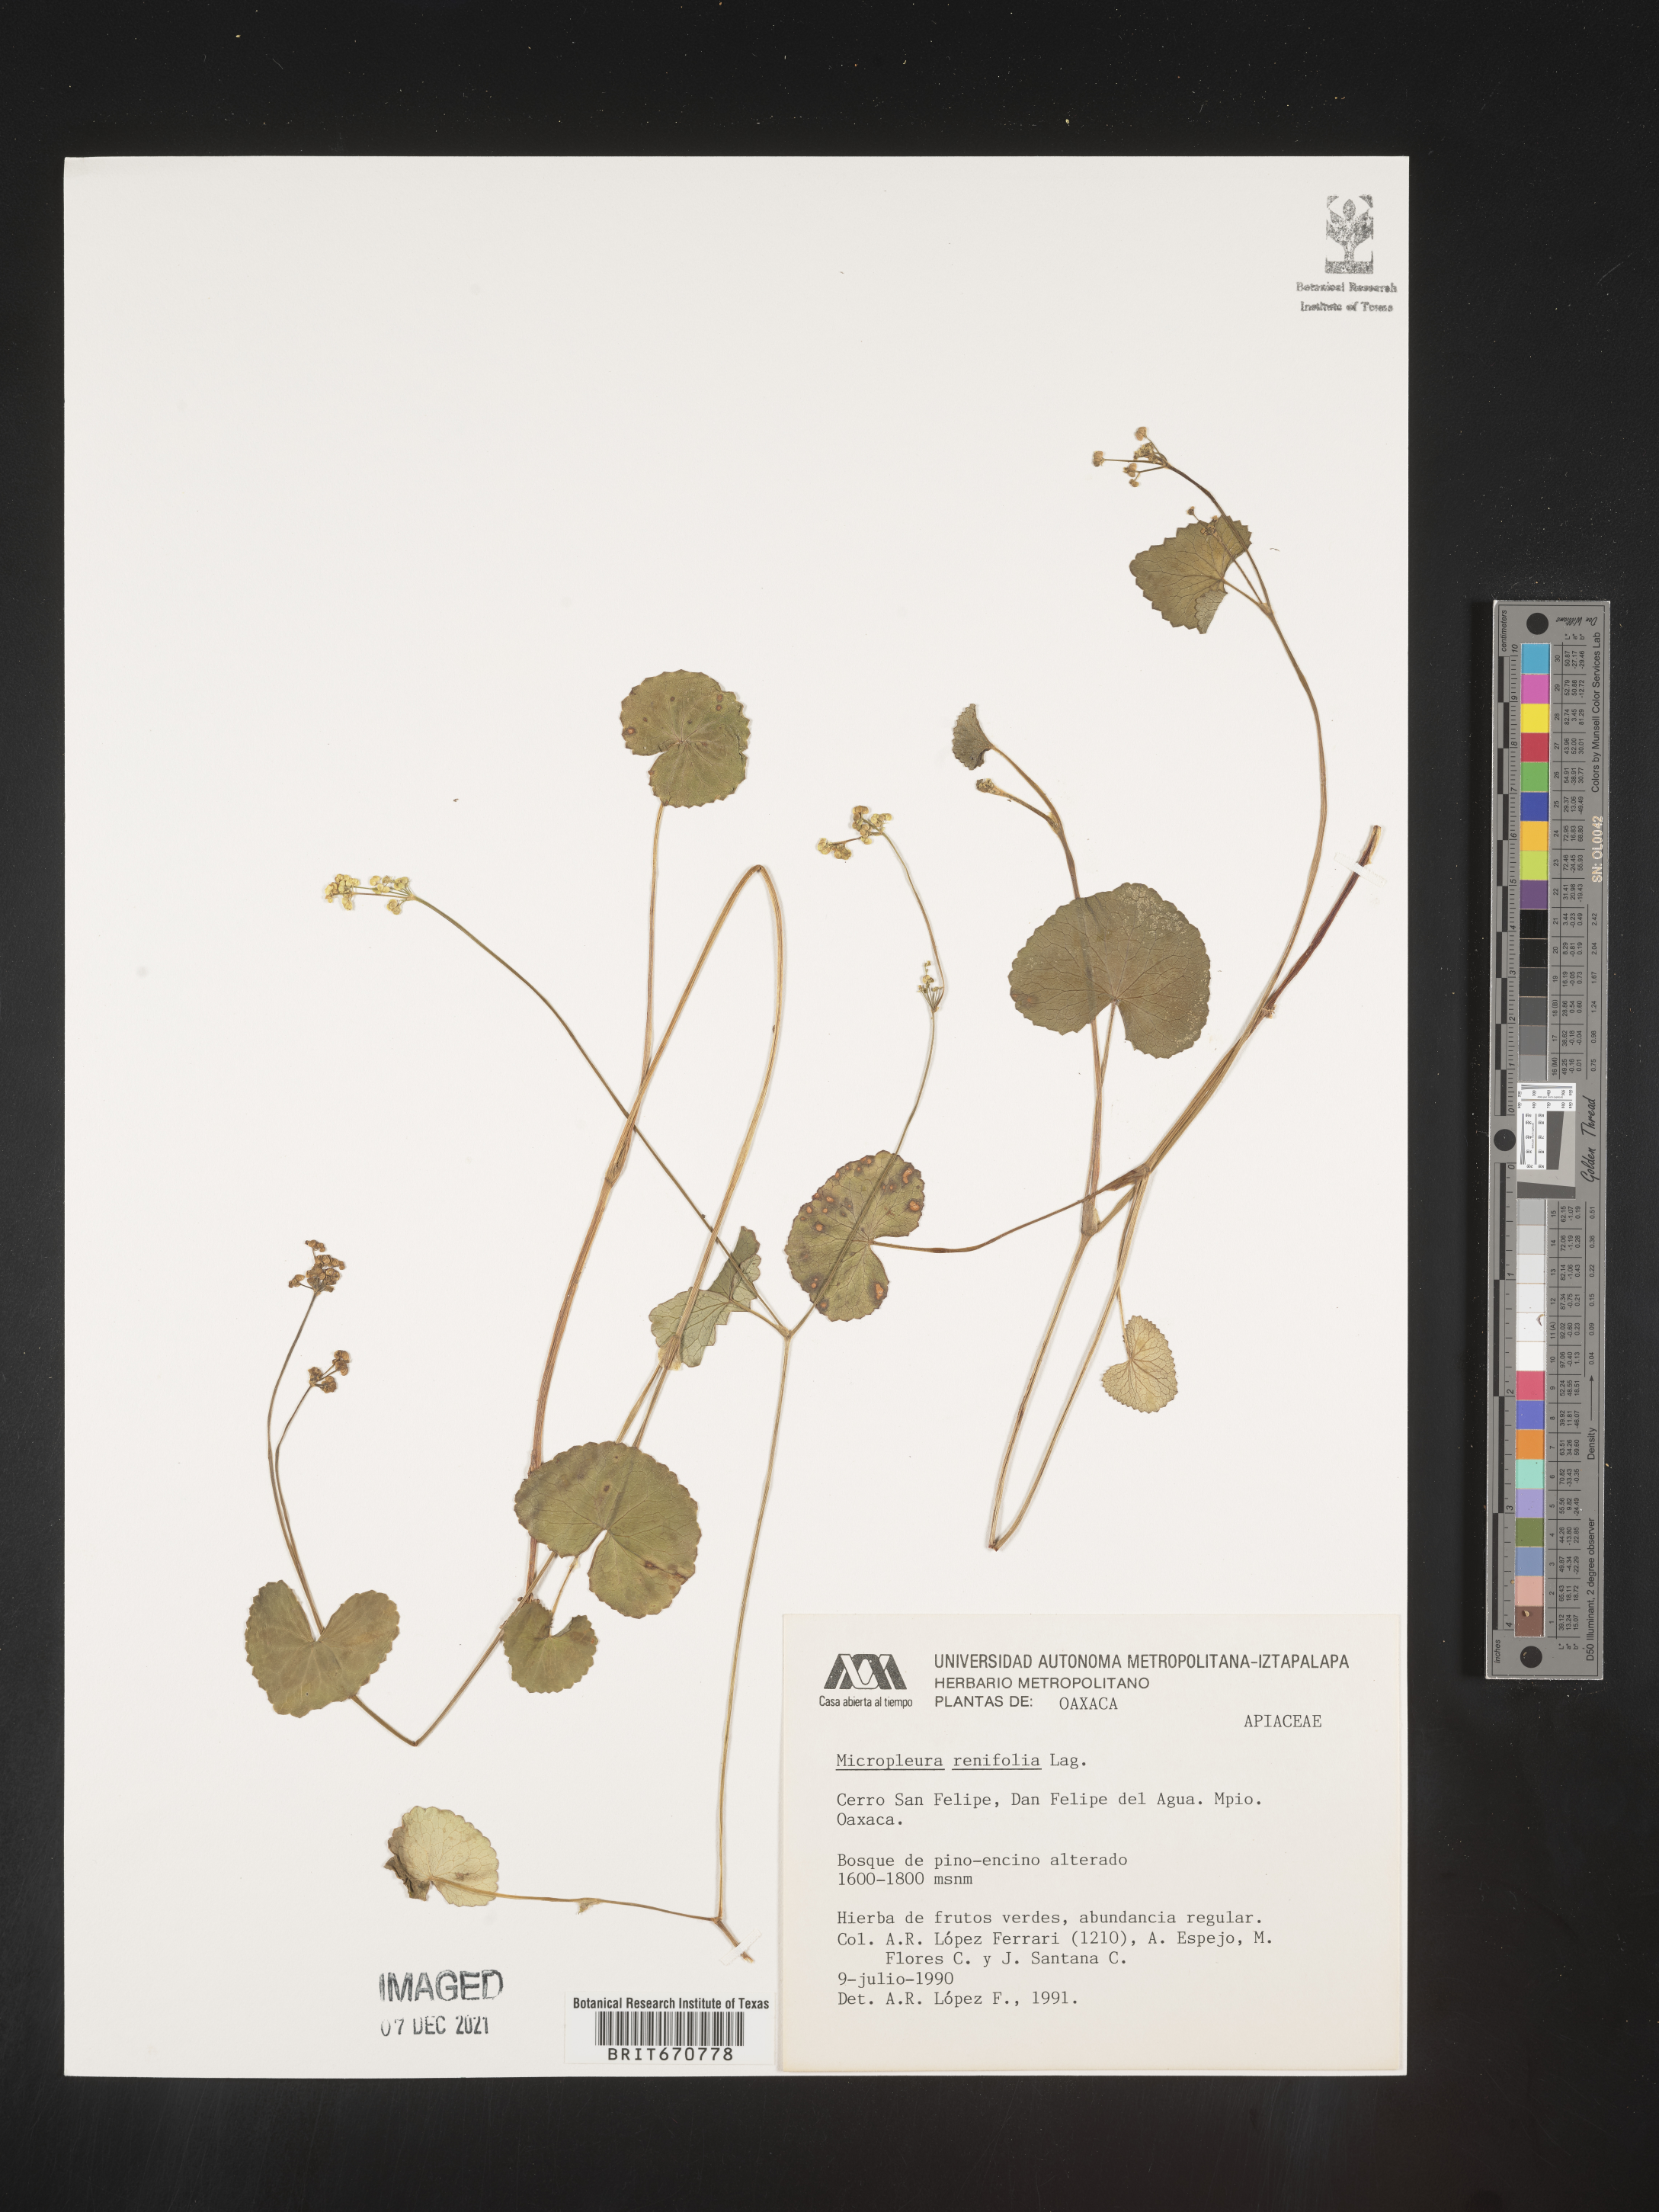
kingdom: Plantae
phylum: Tracheophyta
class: Magnoliopsida
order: Apiales
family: Apiaceae
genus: Micropleura
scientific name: Micropleura
